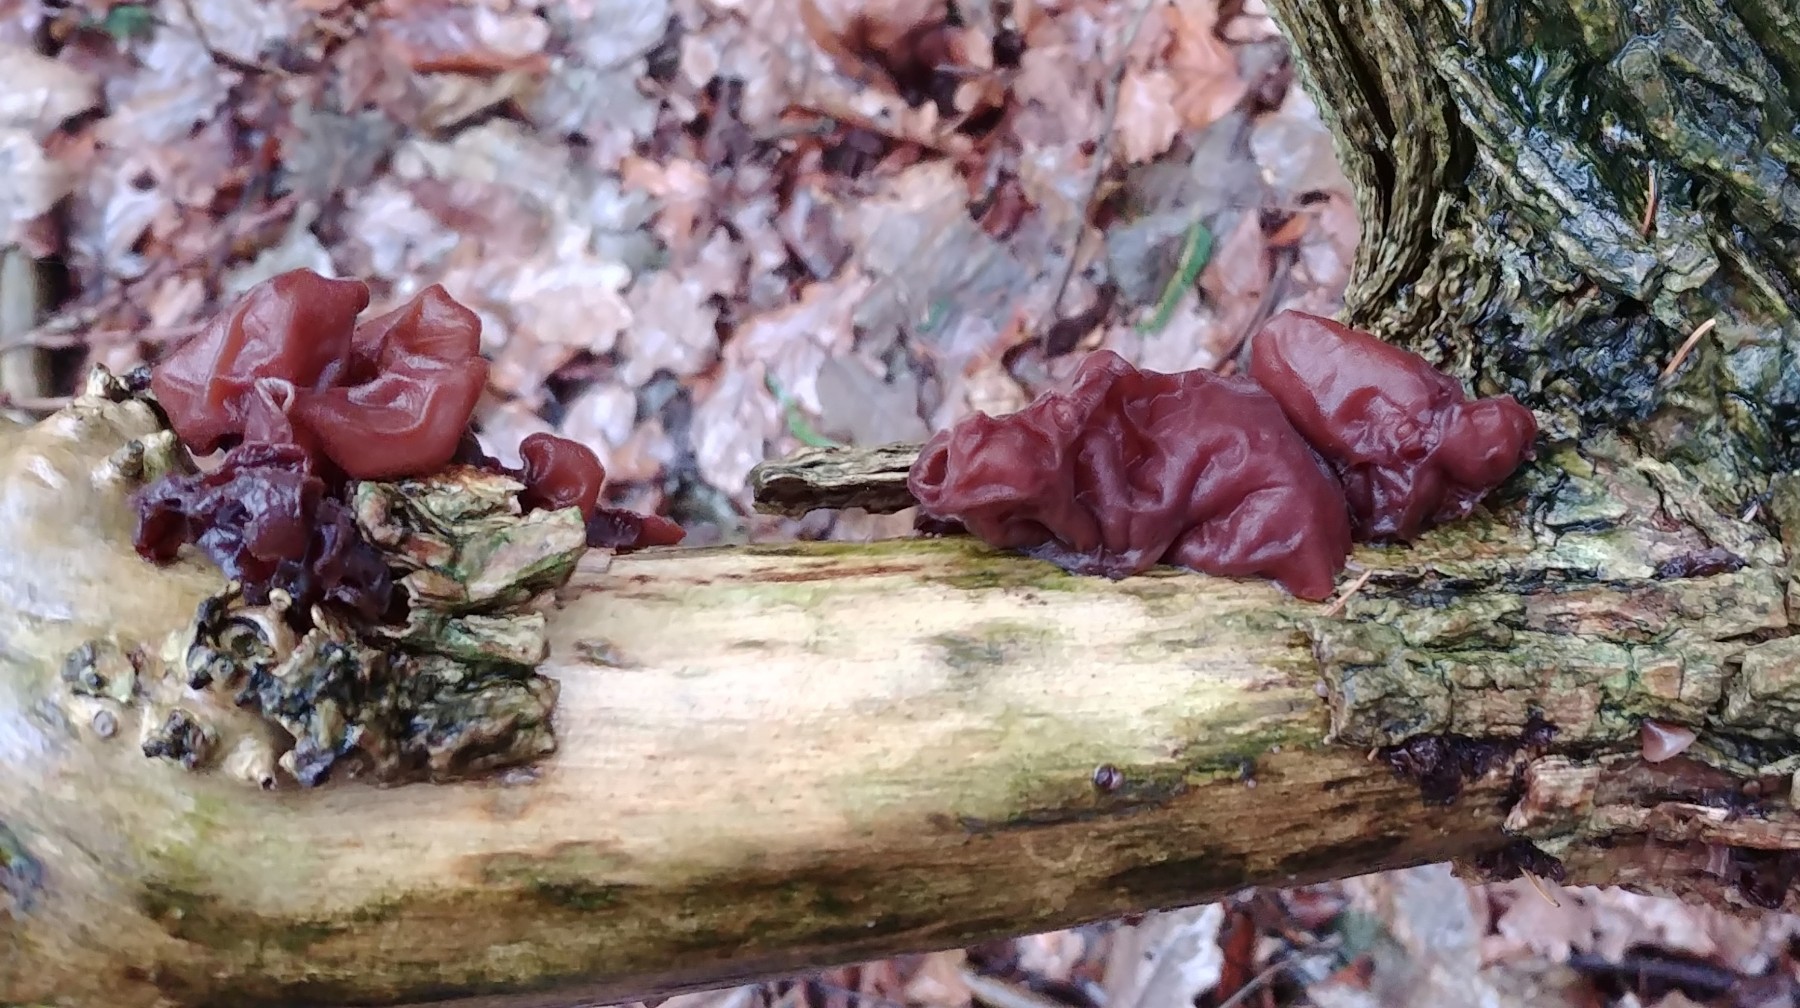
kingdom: Fungi
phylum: Basidiomycota
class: Agaricomycetes
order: Auriculariales
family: Auriculariaceae
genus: Auricularia
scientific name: Auricularia auricula-judae
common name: almindelig judasøre
